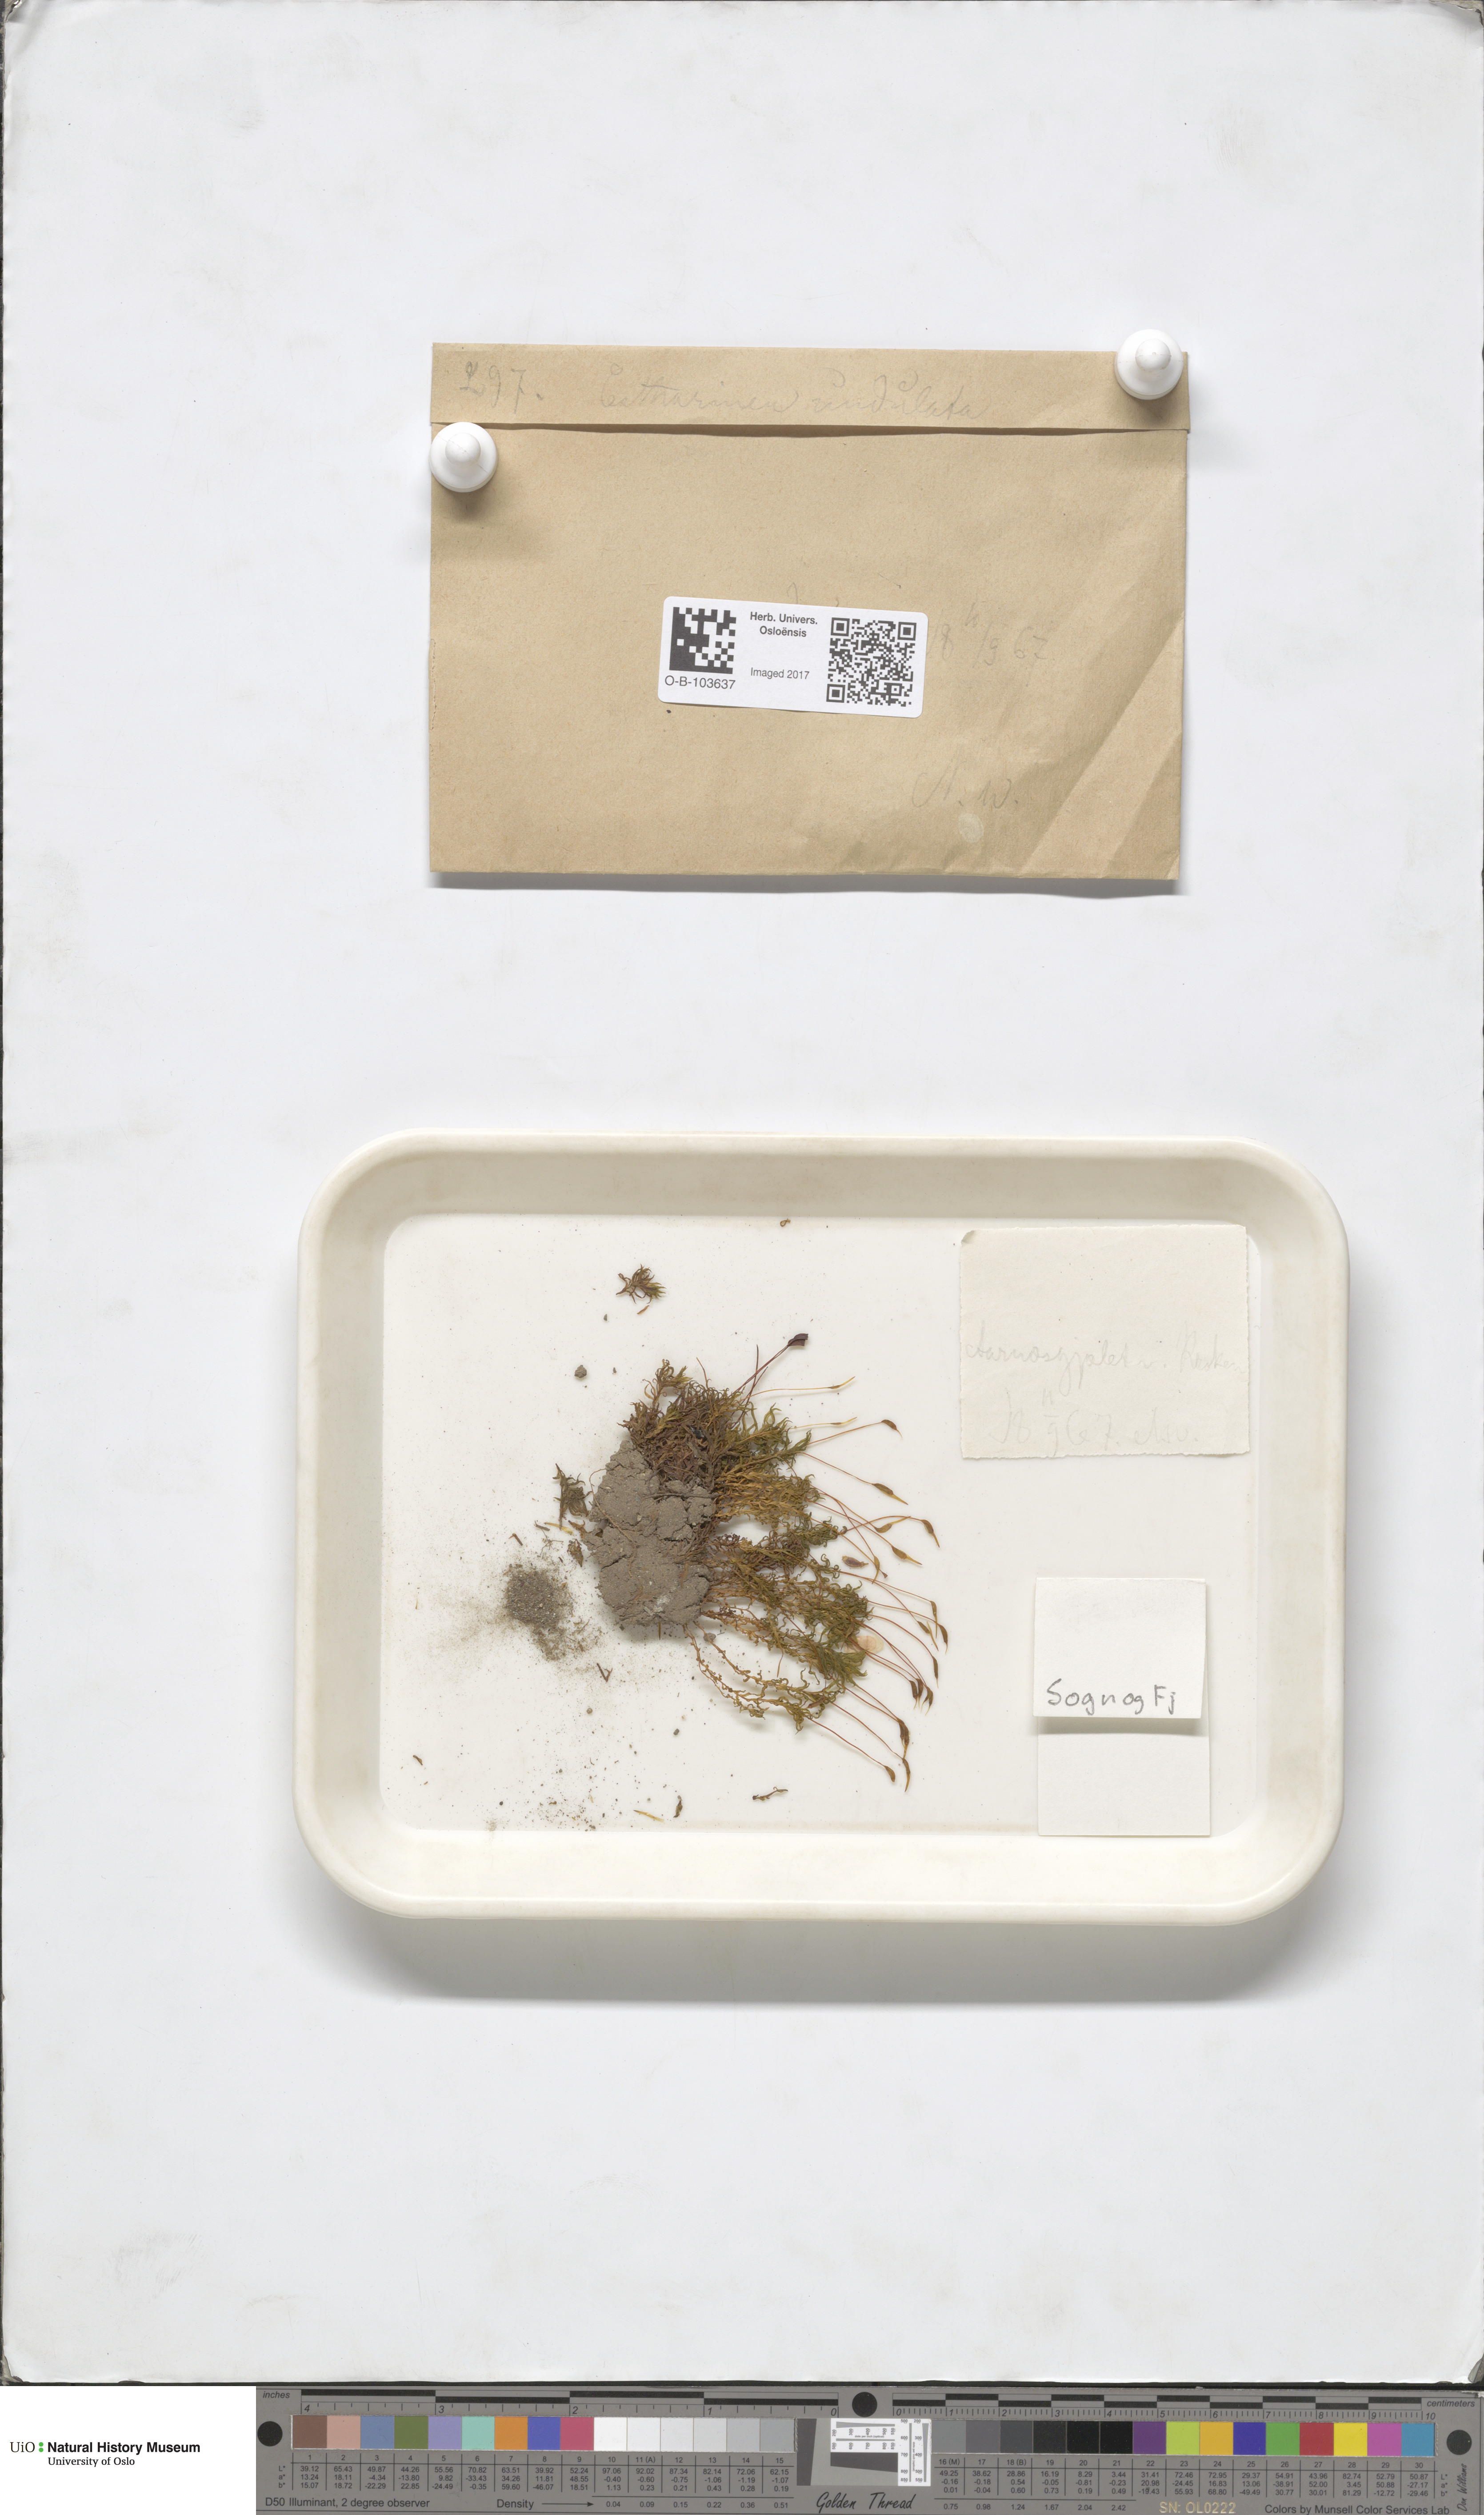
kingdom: Plantae
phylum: Bryophyta
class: Polytrichopsida
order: Polytrichales
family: Polytrichaceae
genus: Atrichum
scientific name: Atrichum undulatum
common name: Common smoothcap
